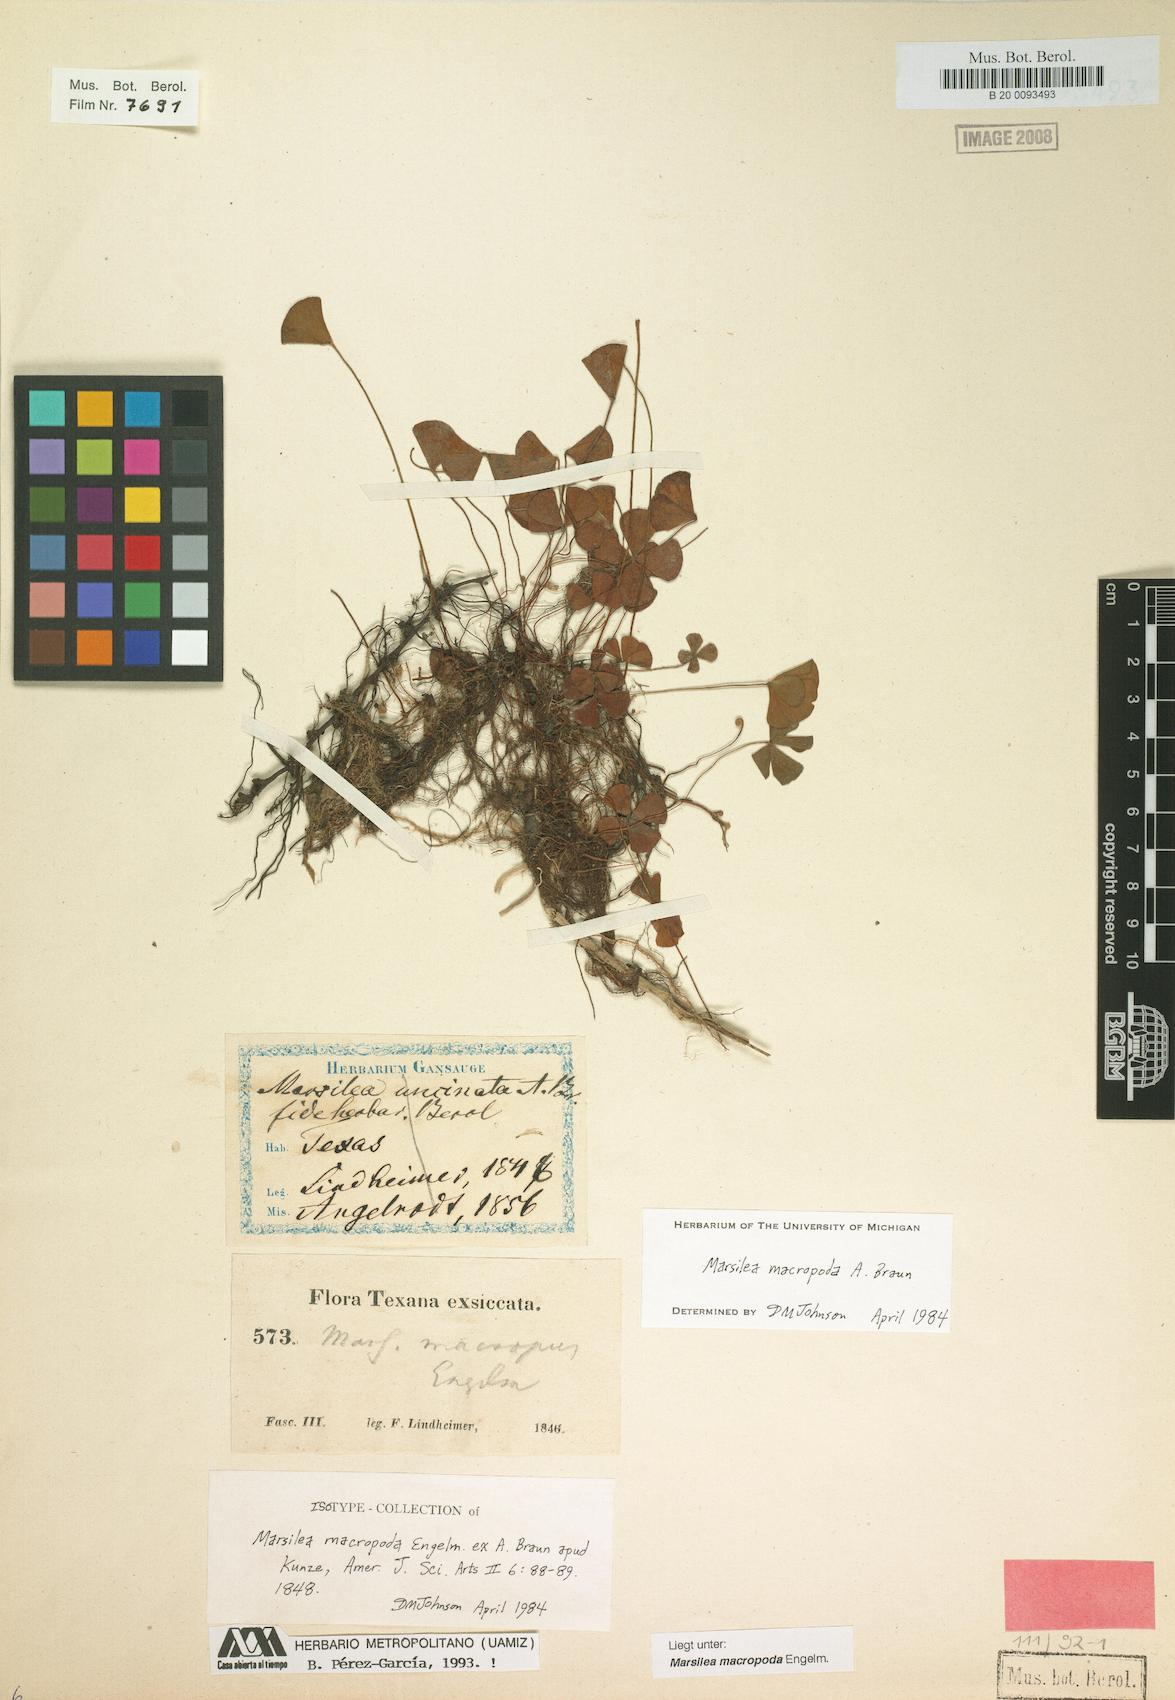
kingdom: Plantae
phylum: Tracheophyta
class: Polypodiopsida
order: Salviniales
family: Marsileaceae
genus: Marsilea
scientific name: Marsilea macropoda
